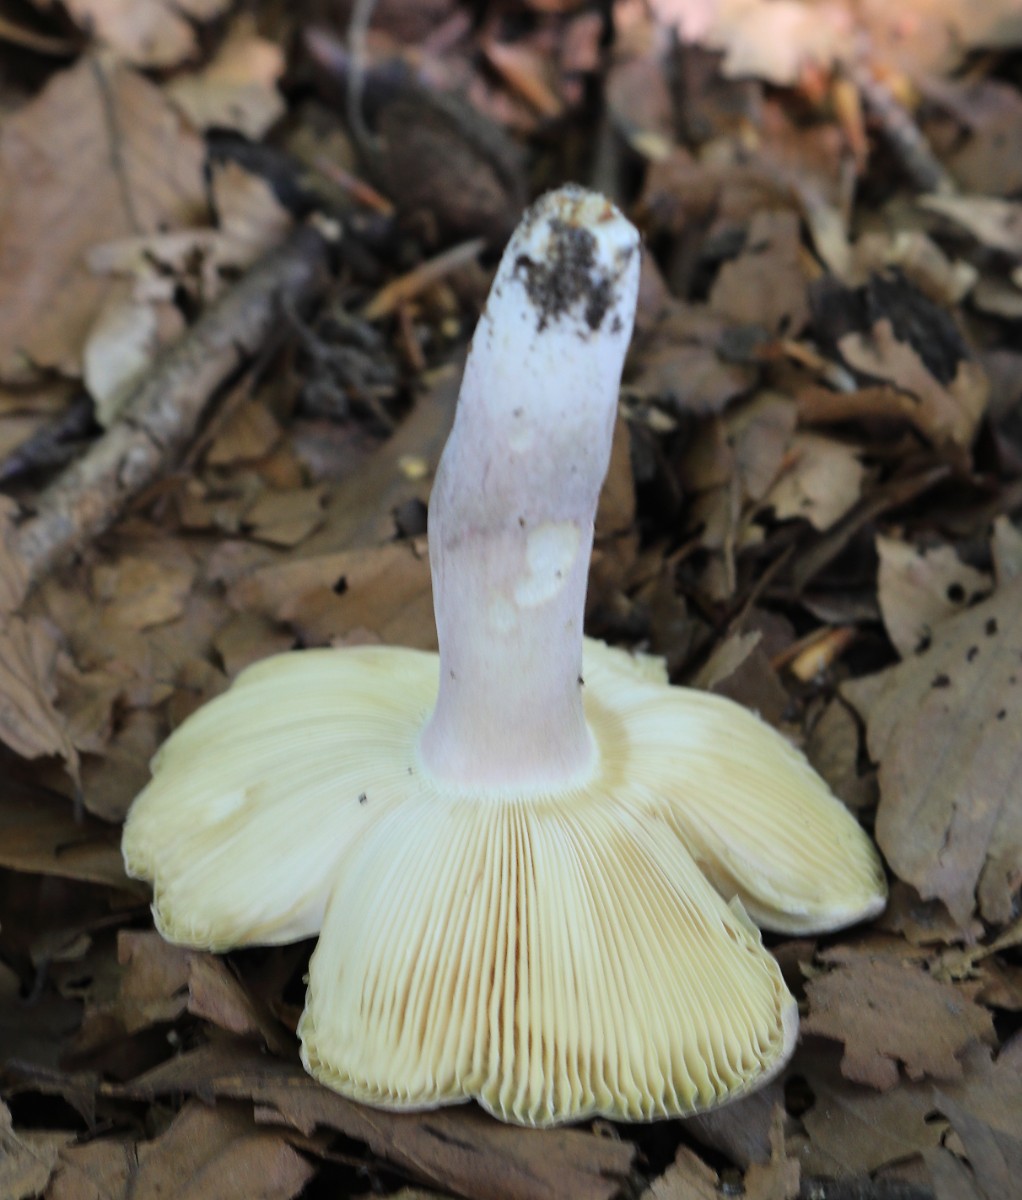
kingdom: Fungi
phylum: Basidiomycota
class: Agaricomycetes
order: Russulales
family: Russulaceae
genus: Russula
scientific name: Russula violeipes
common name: ferskengul skørhat
